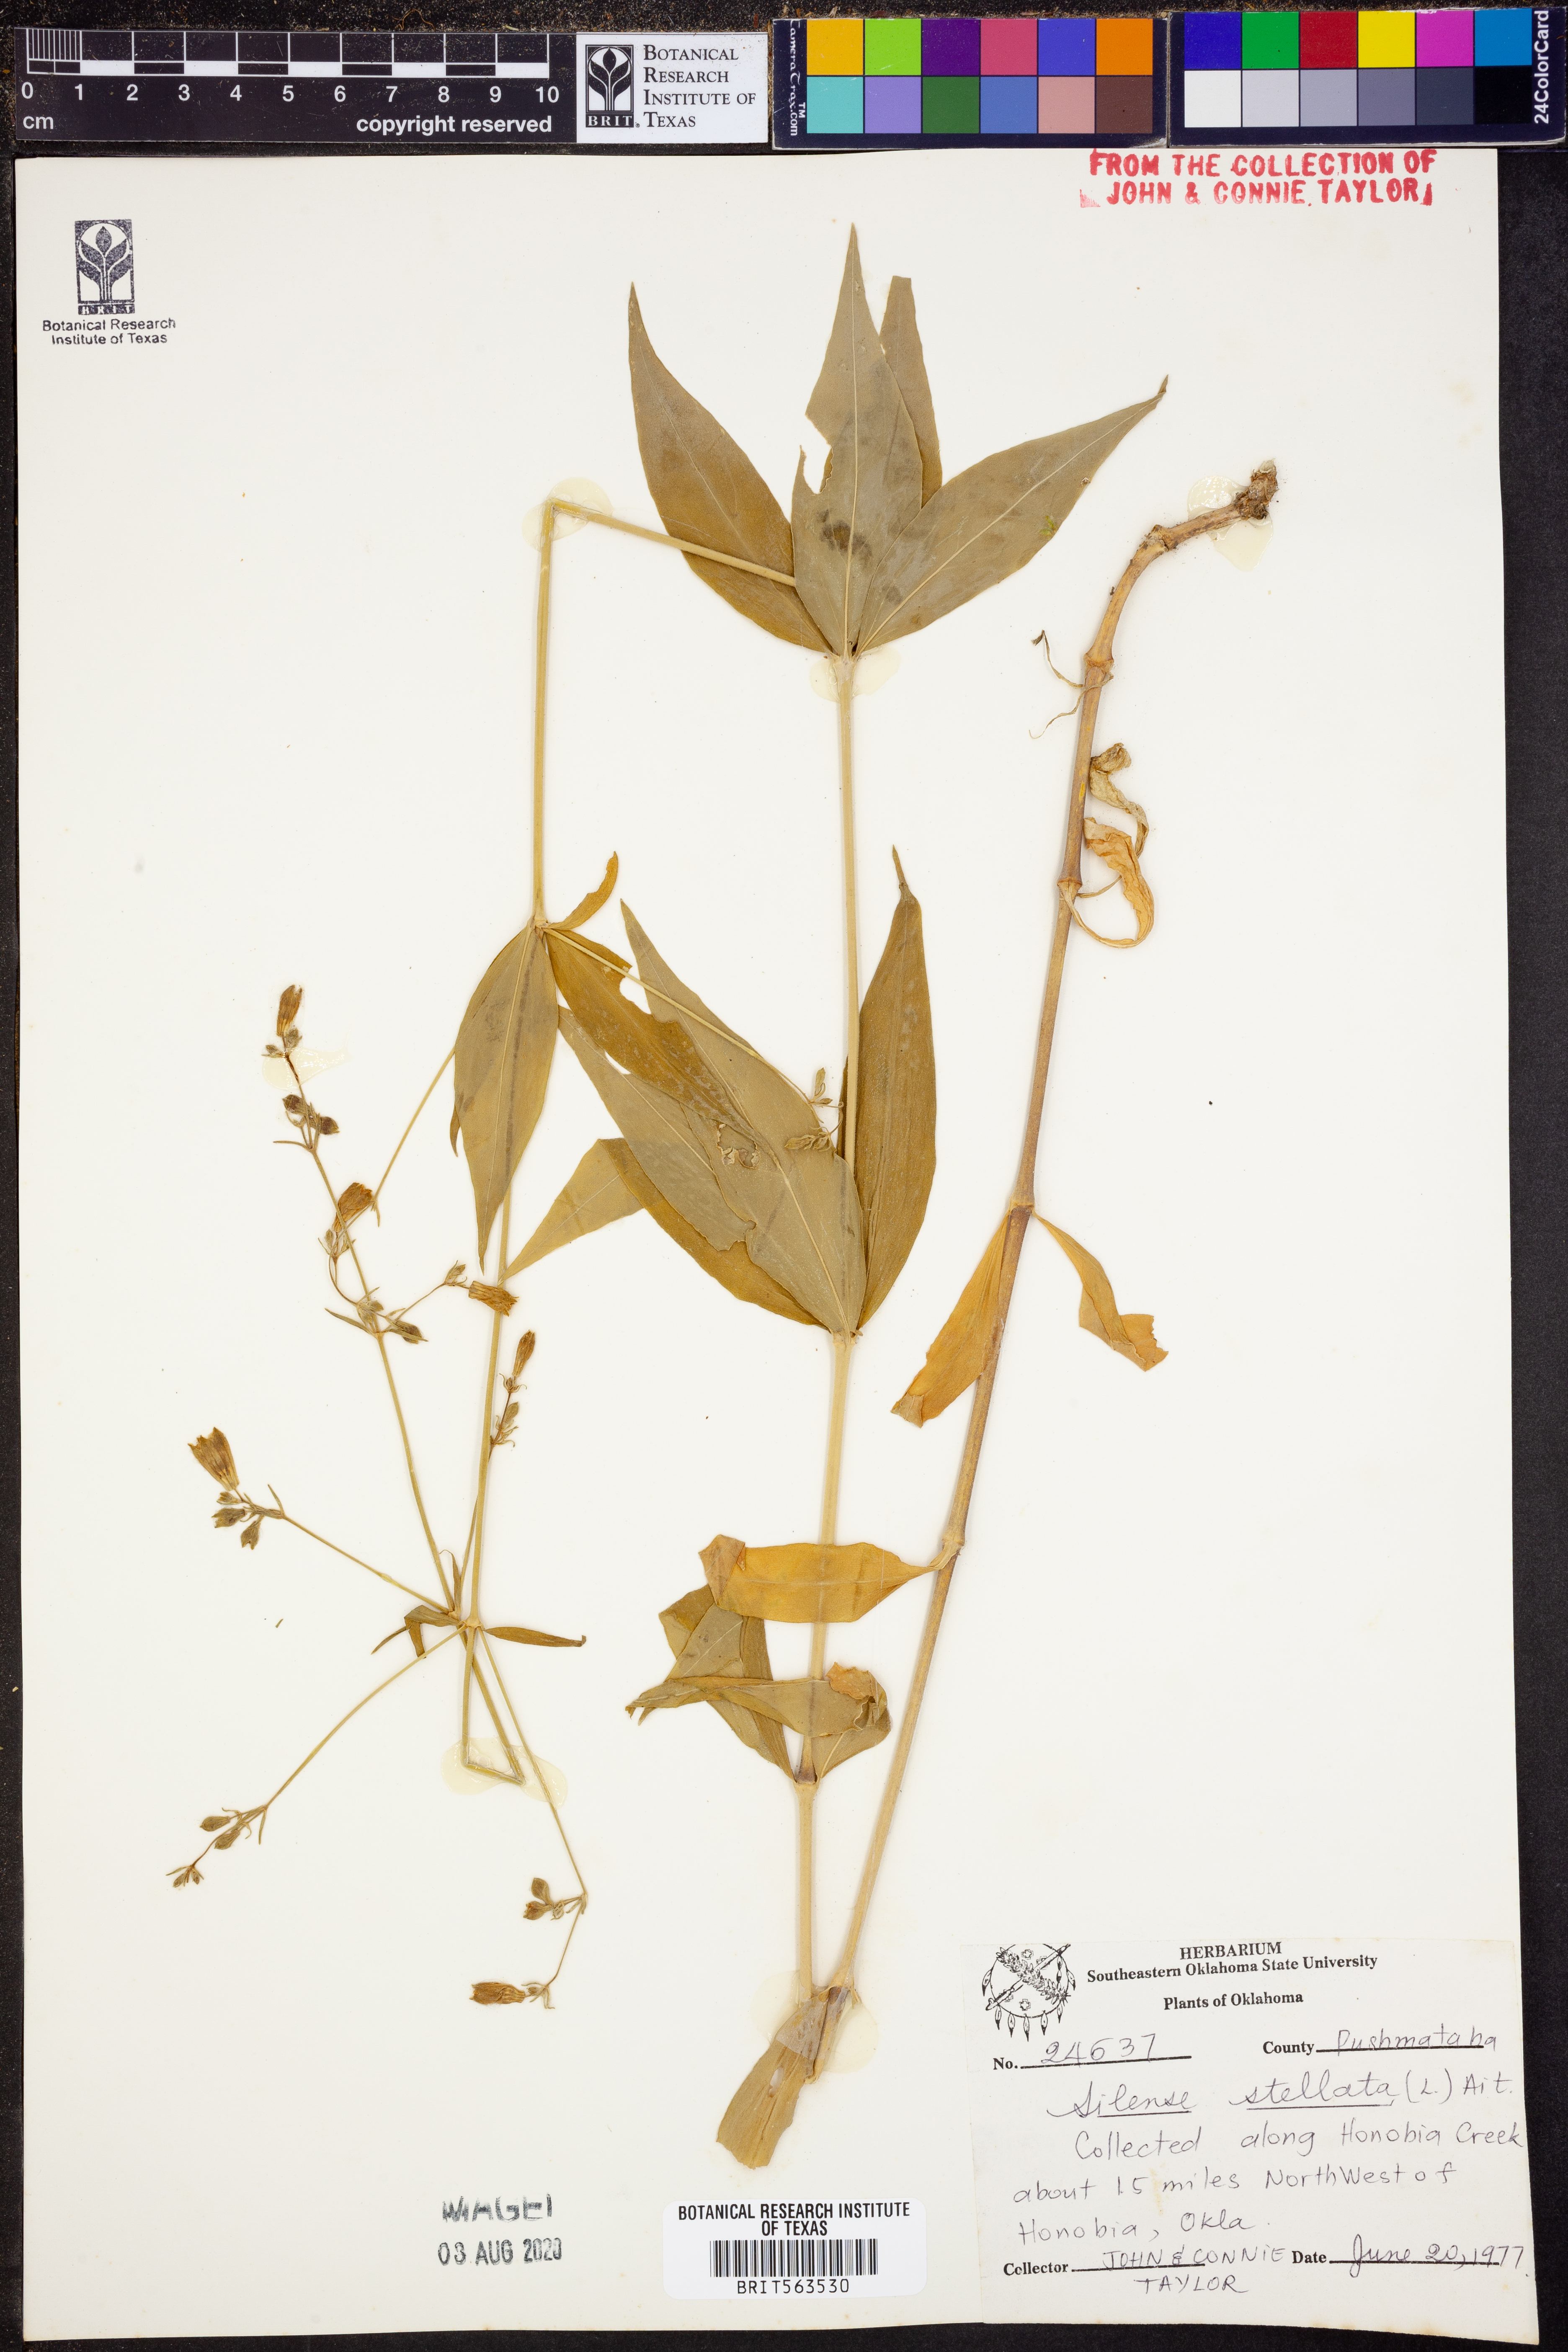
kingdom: Plantae
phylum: Tracheophyta
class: Magnoliopsida
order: Caryophyllales
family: Caryophyllaceae
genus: Silene
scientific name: Silene stellata
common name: Starry campion
